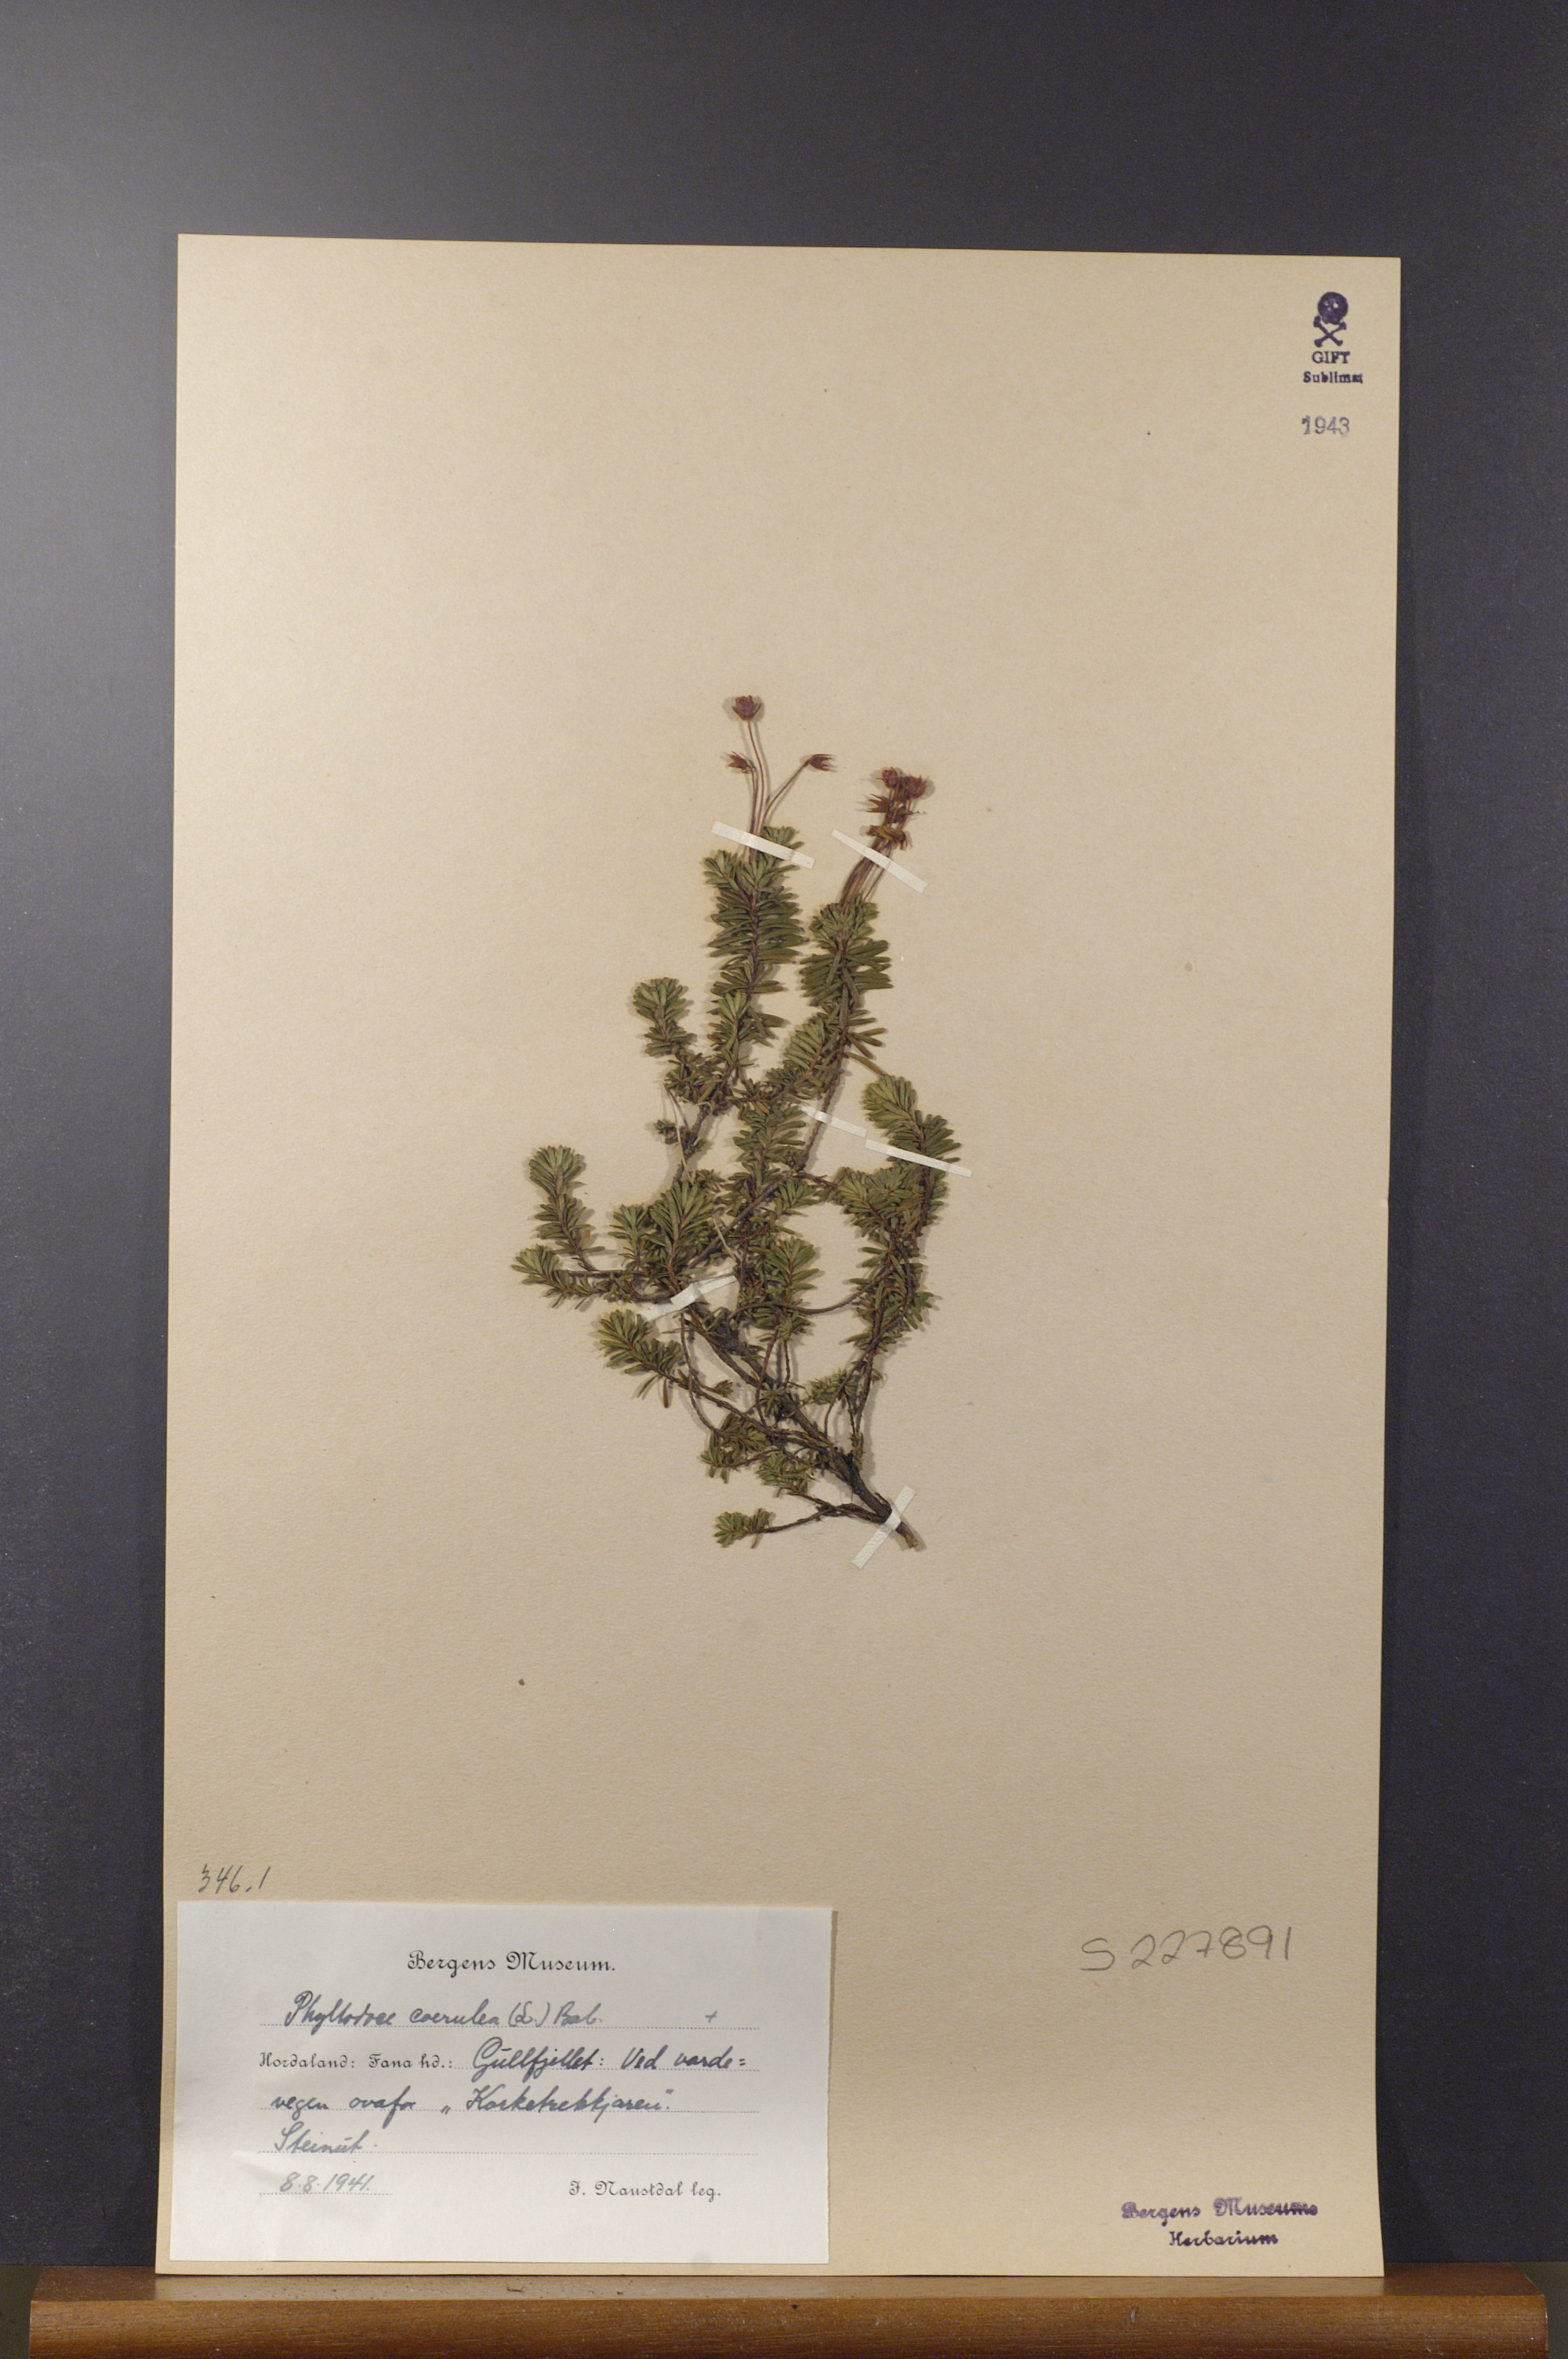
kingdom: Plantae
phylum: Tracheophyta
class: Magnoliopsida
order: Ericales
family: Ericaceae
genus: Phyllodoce
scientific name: Phyllodoce caerulea
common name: Blue heath
